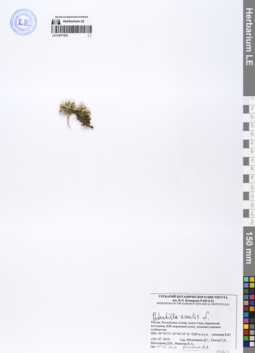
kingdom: Plantae
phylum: Tracheophyta
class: Magnoliopsida
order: Rosales
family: Rosaceae
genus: Potentilla
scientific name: Potentilla acaulis
